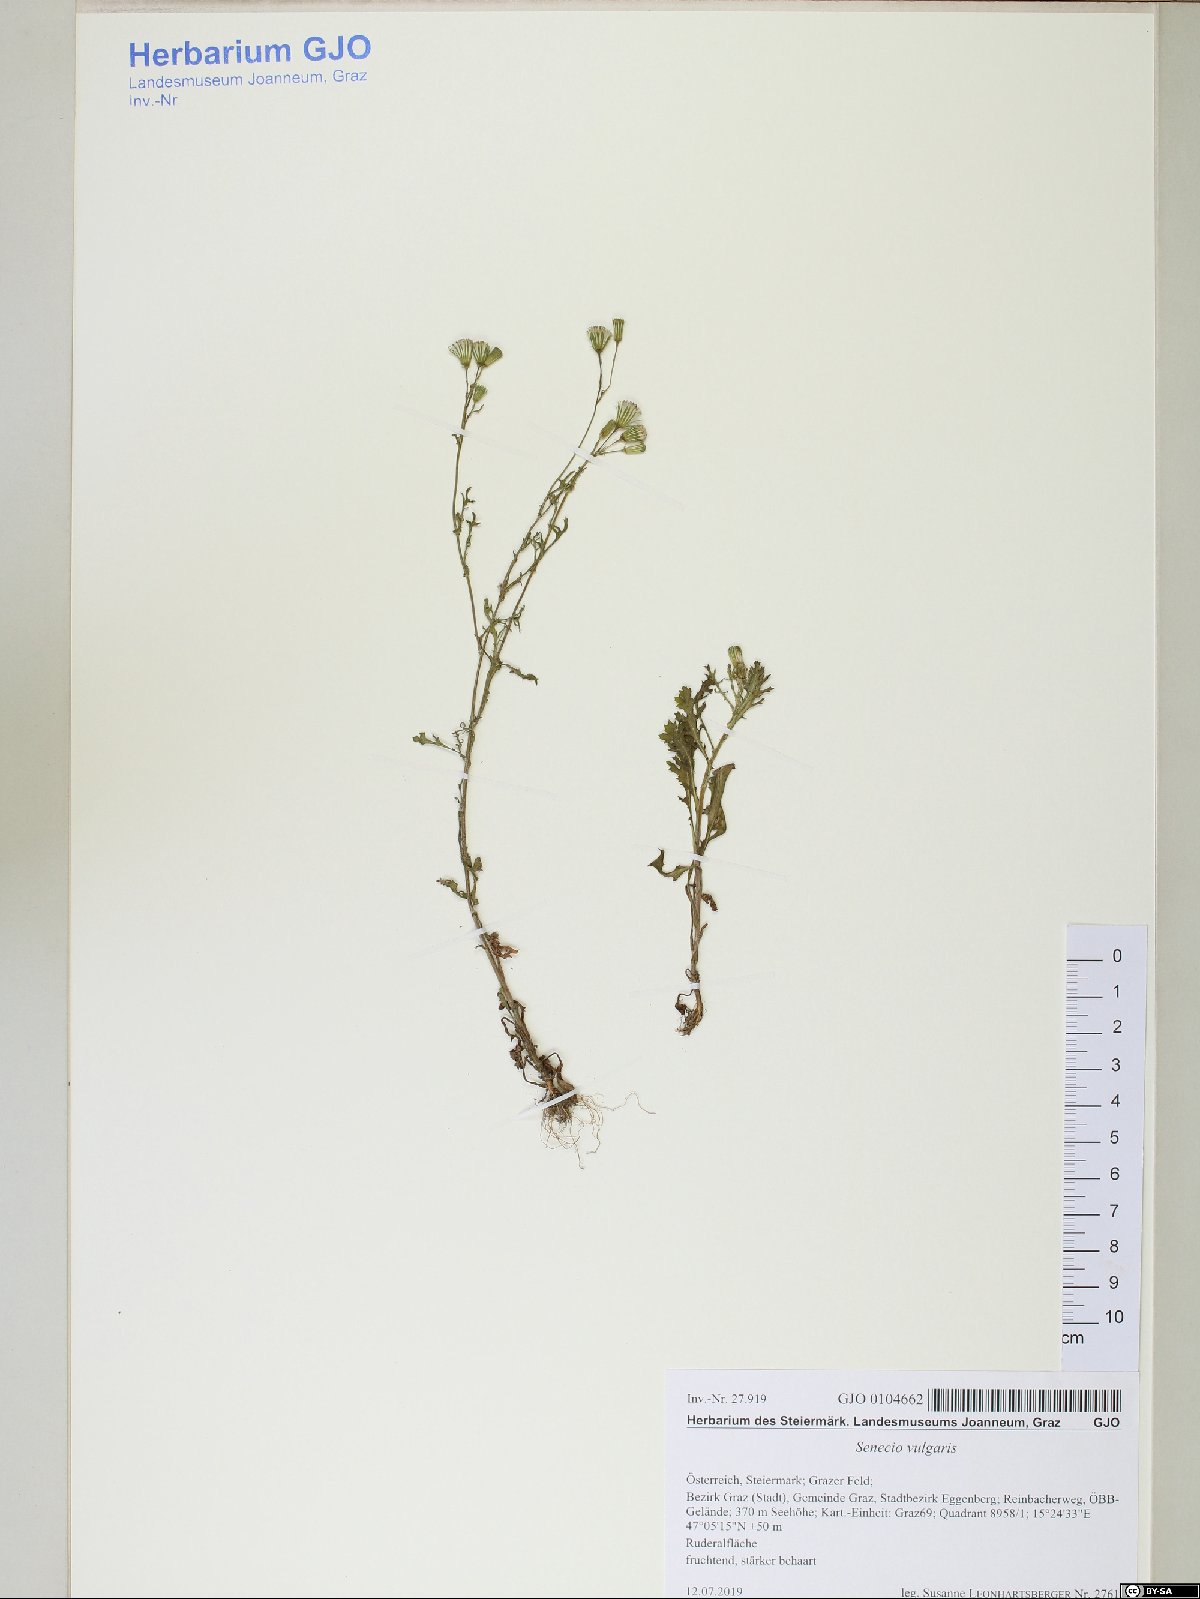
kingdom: Plantae
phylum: Tracheophyta
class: Magnoliopsida
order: Asterales
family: Asteraceae
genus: Senecio
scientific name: Senecio vulgaris
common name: Old-man-in-the-spring
